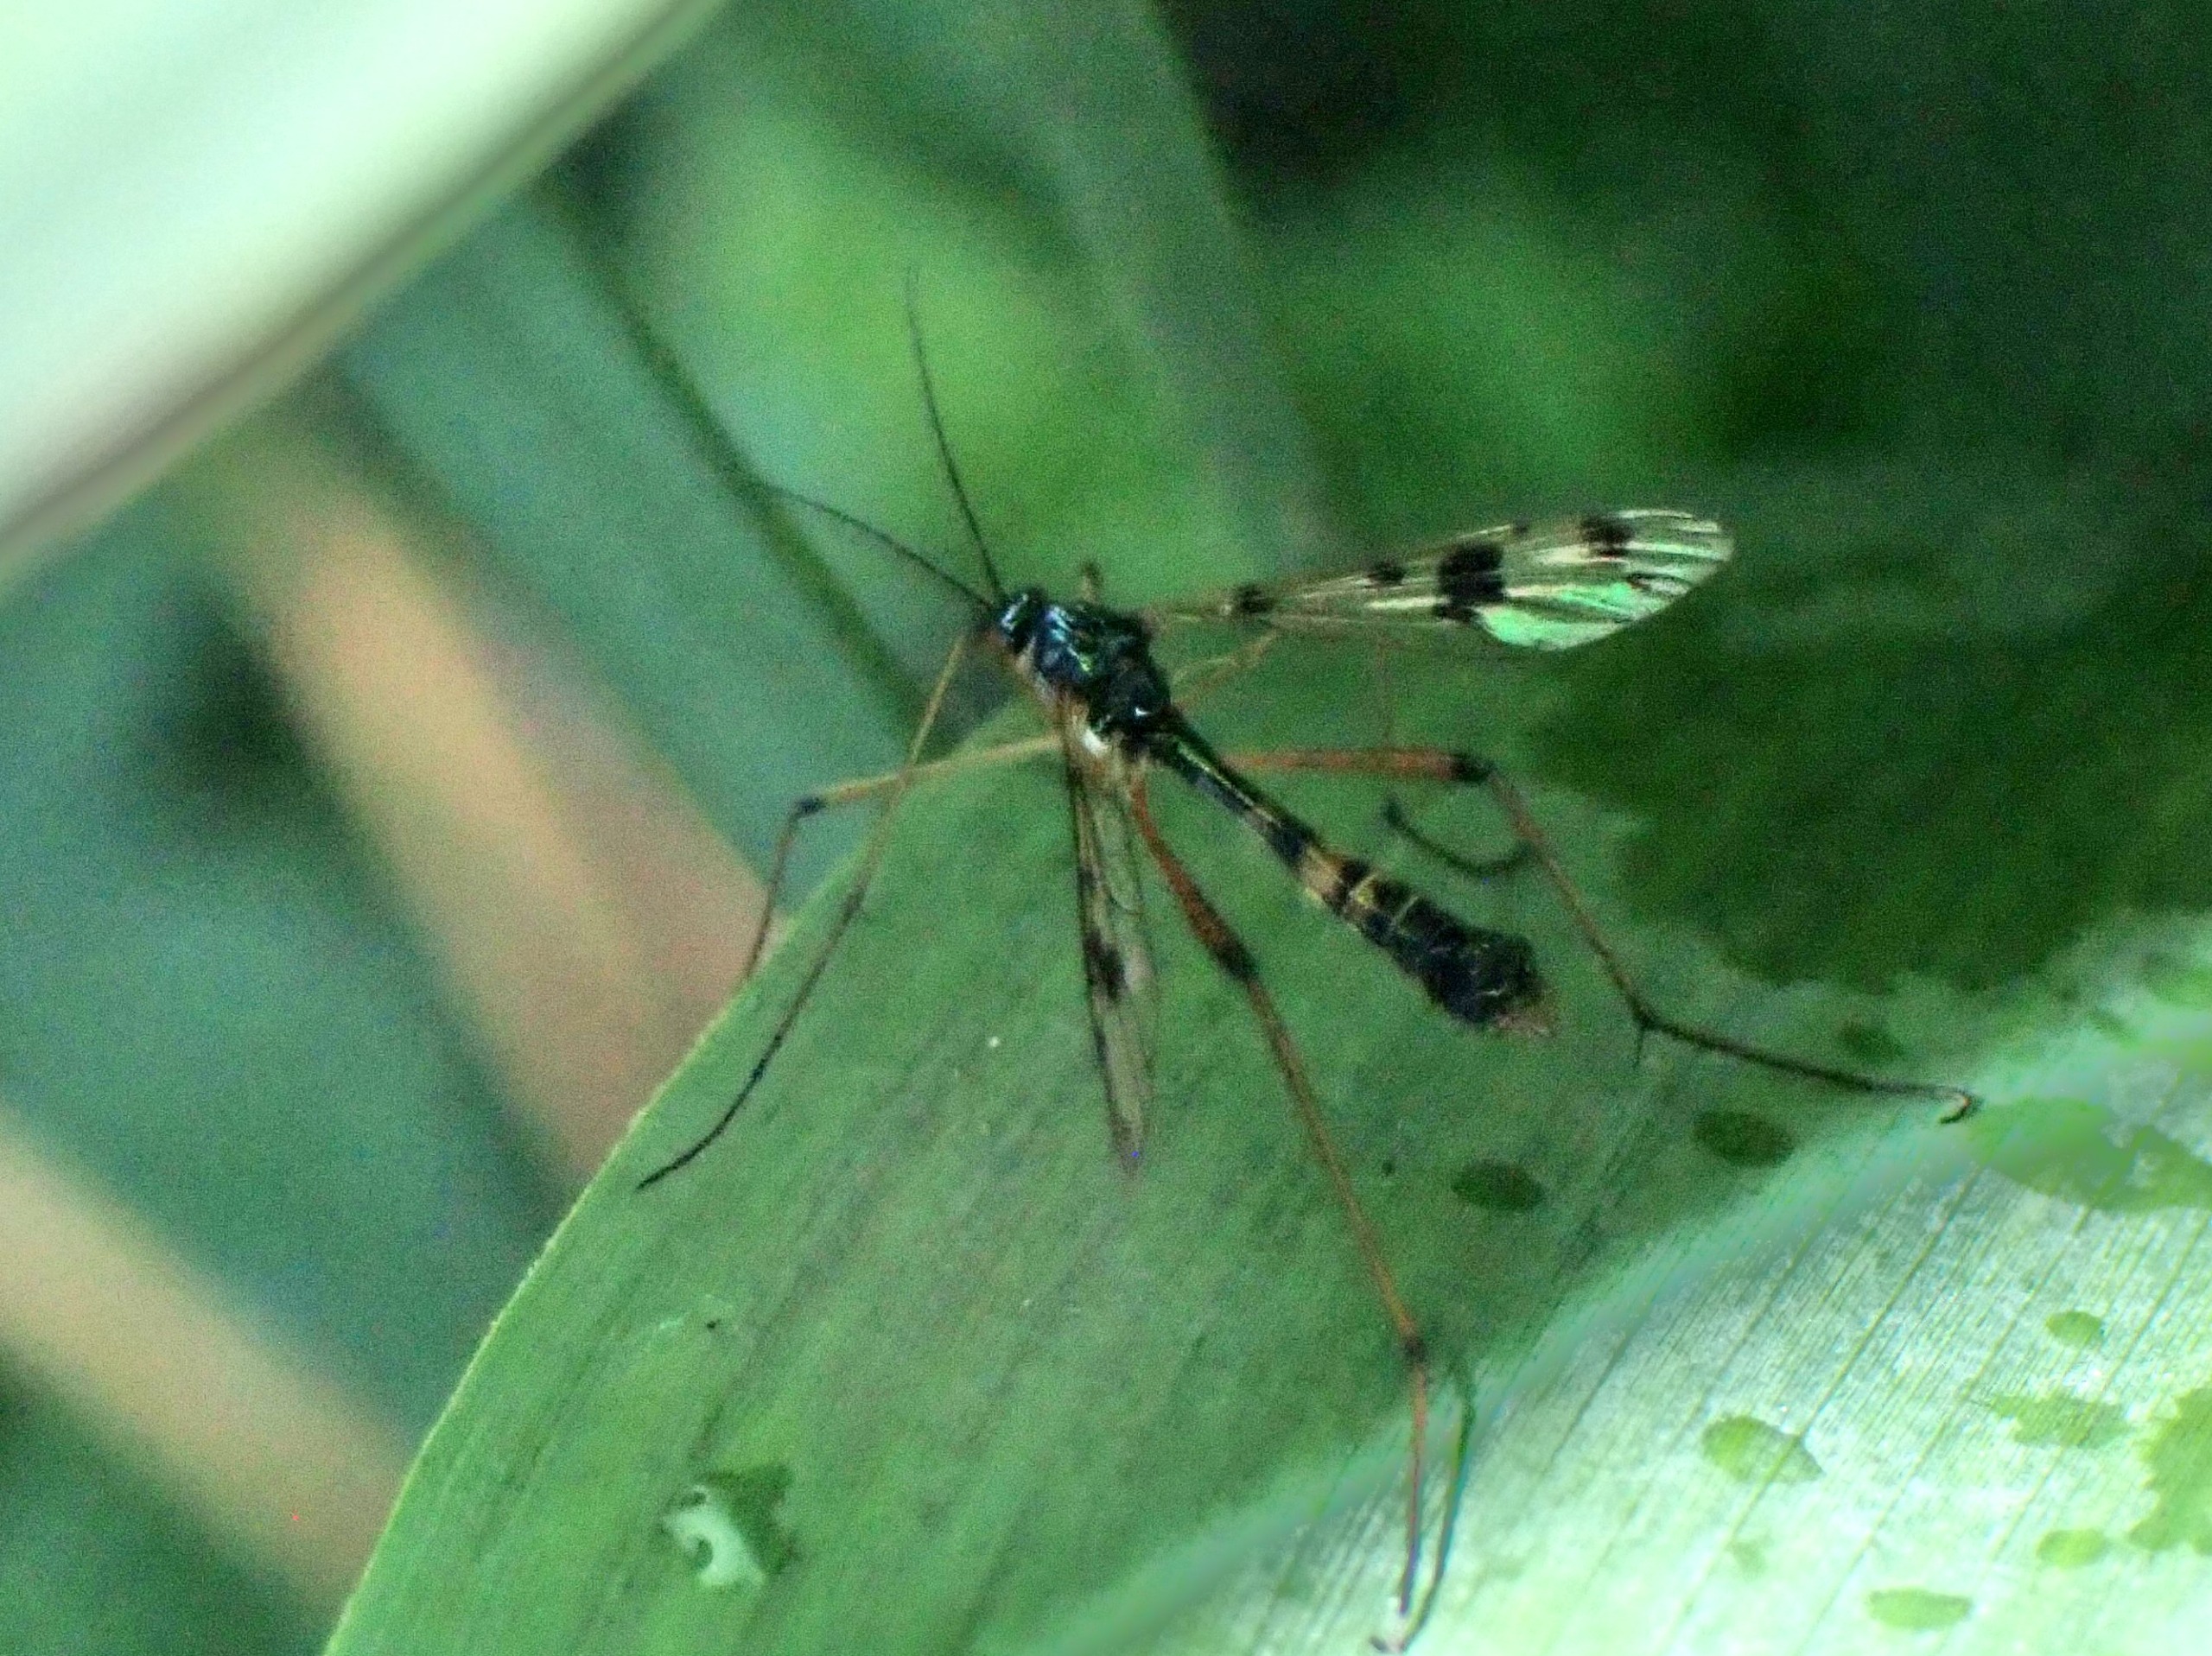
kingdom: Animalia
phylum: Arthropoda
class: Insecta
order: Diptera
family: Ptychopteridae
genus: Ptychoptera
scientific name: Ptychoptera contaminata
